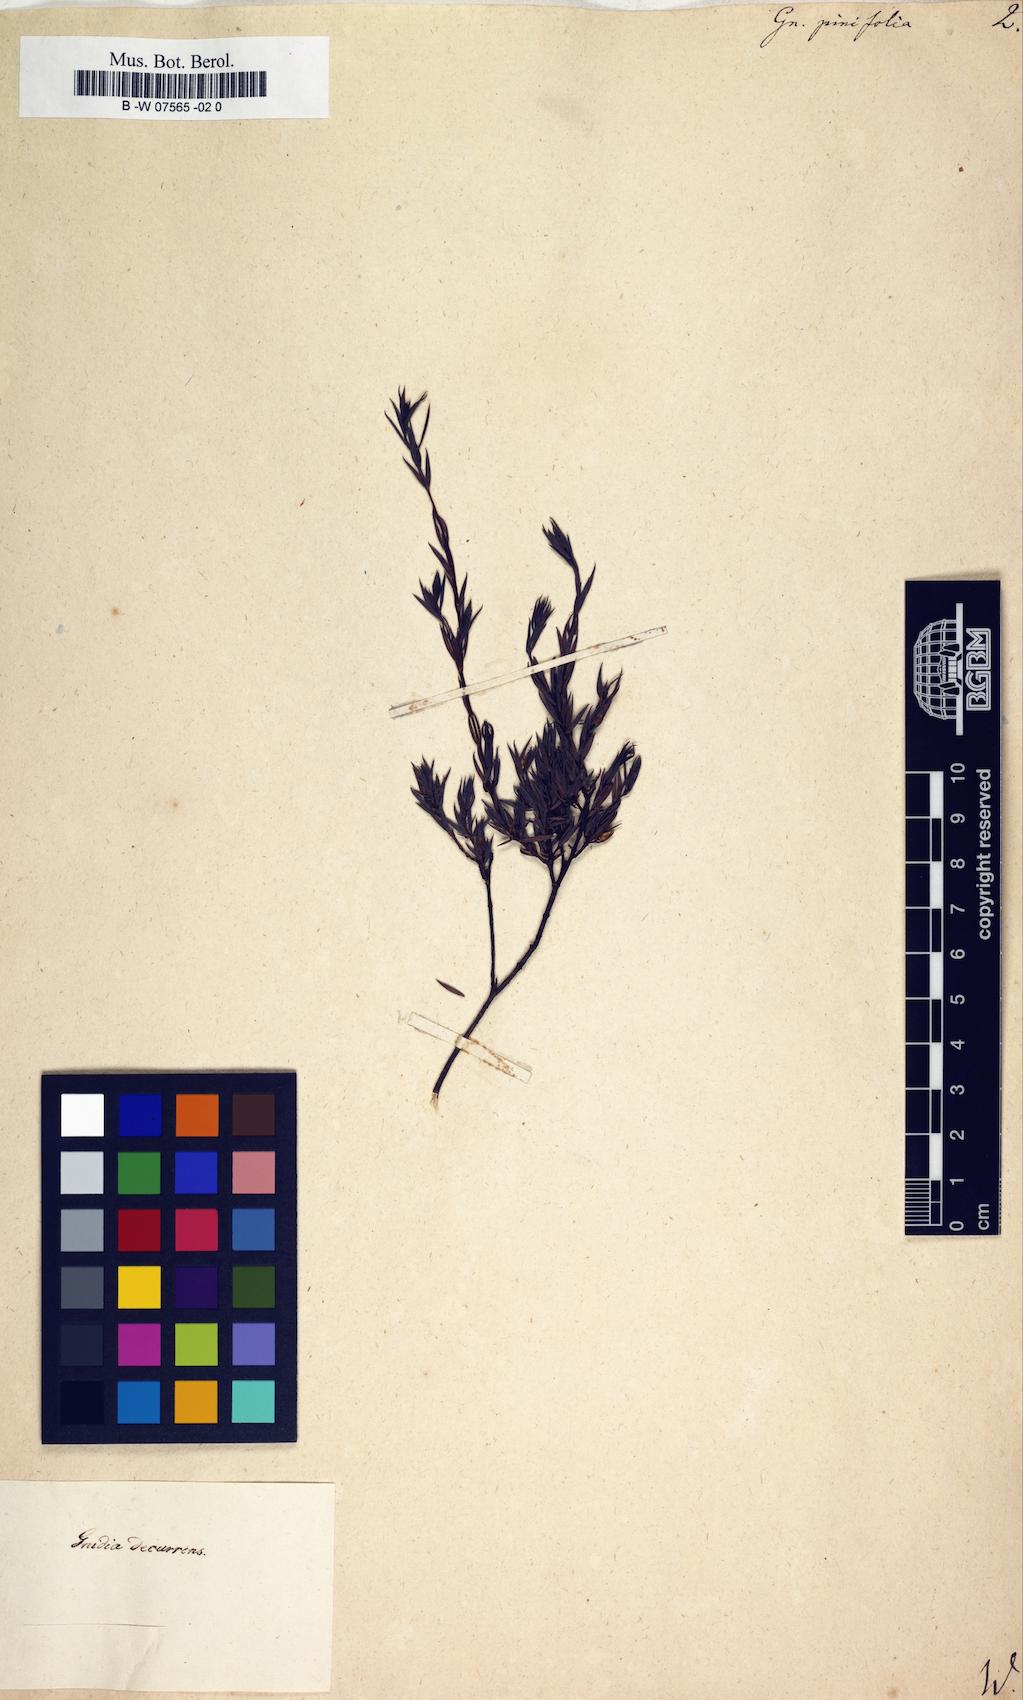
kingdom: Plantae
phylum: Tracheophyta
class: Magnoliopsida
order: Malvales
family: Thymelaeaceae
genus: Gnidia
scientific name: Gnidia pinifolia
